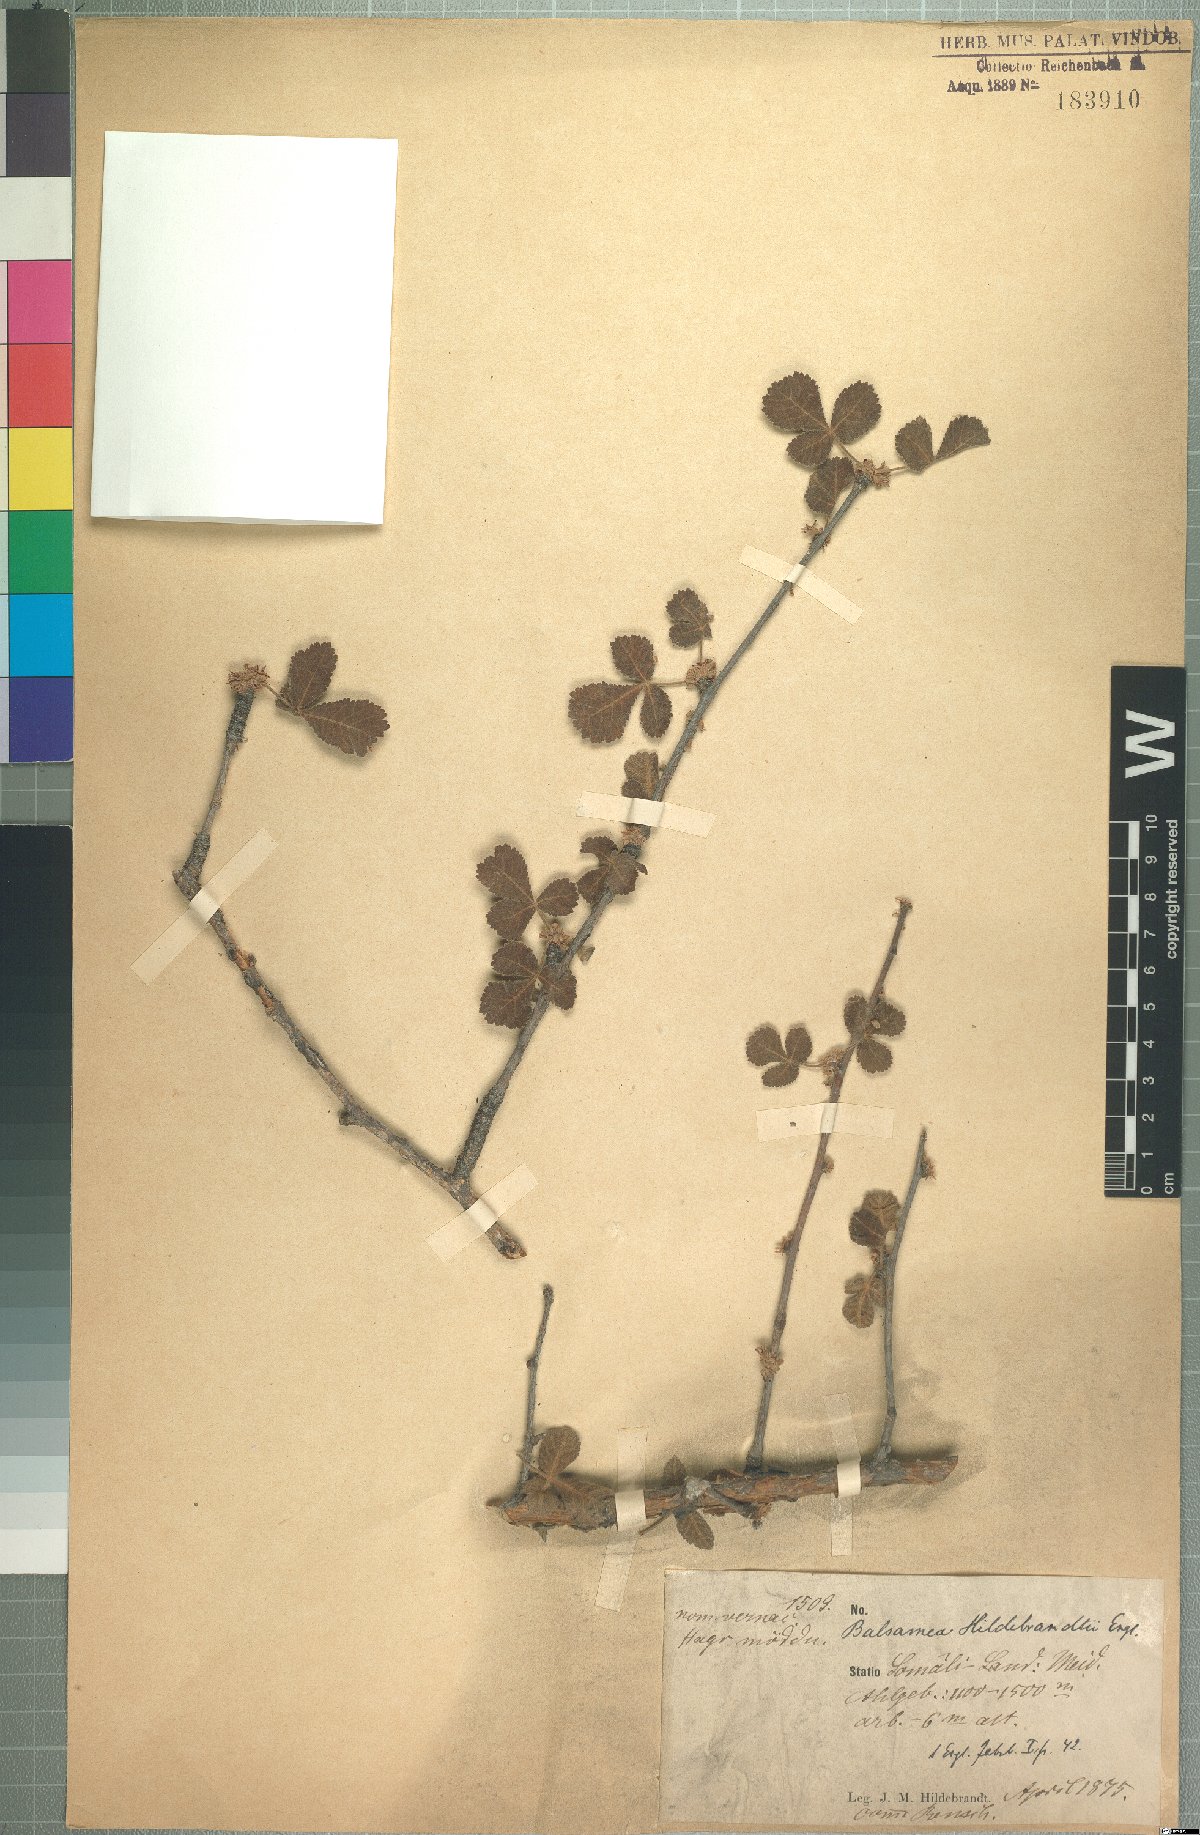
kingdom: Plantae
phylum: Tracheophyta
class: Magnoliopsida
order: Sapindales
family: Burseraceae
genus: Commiphora
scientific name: Commiphora hildebrandtii
